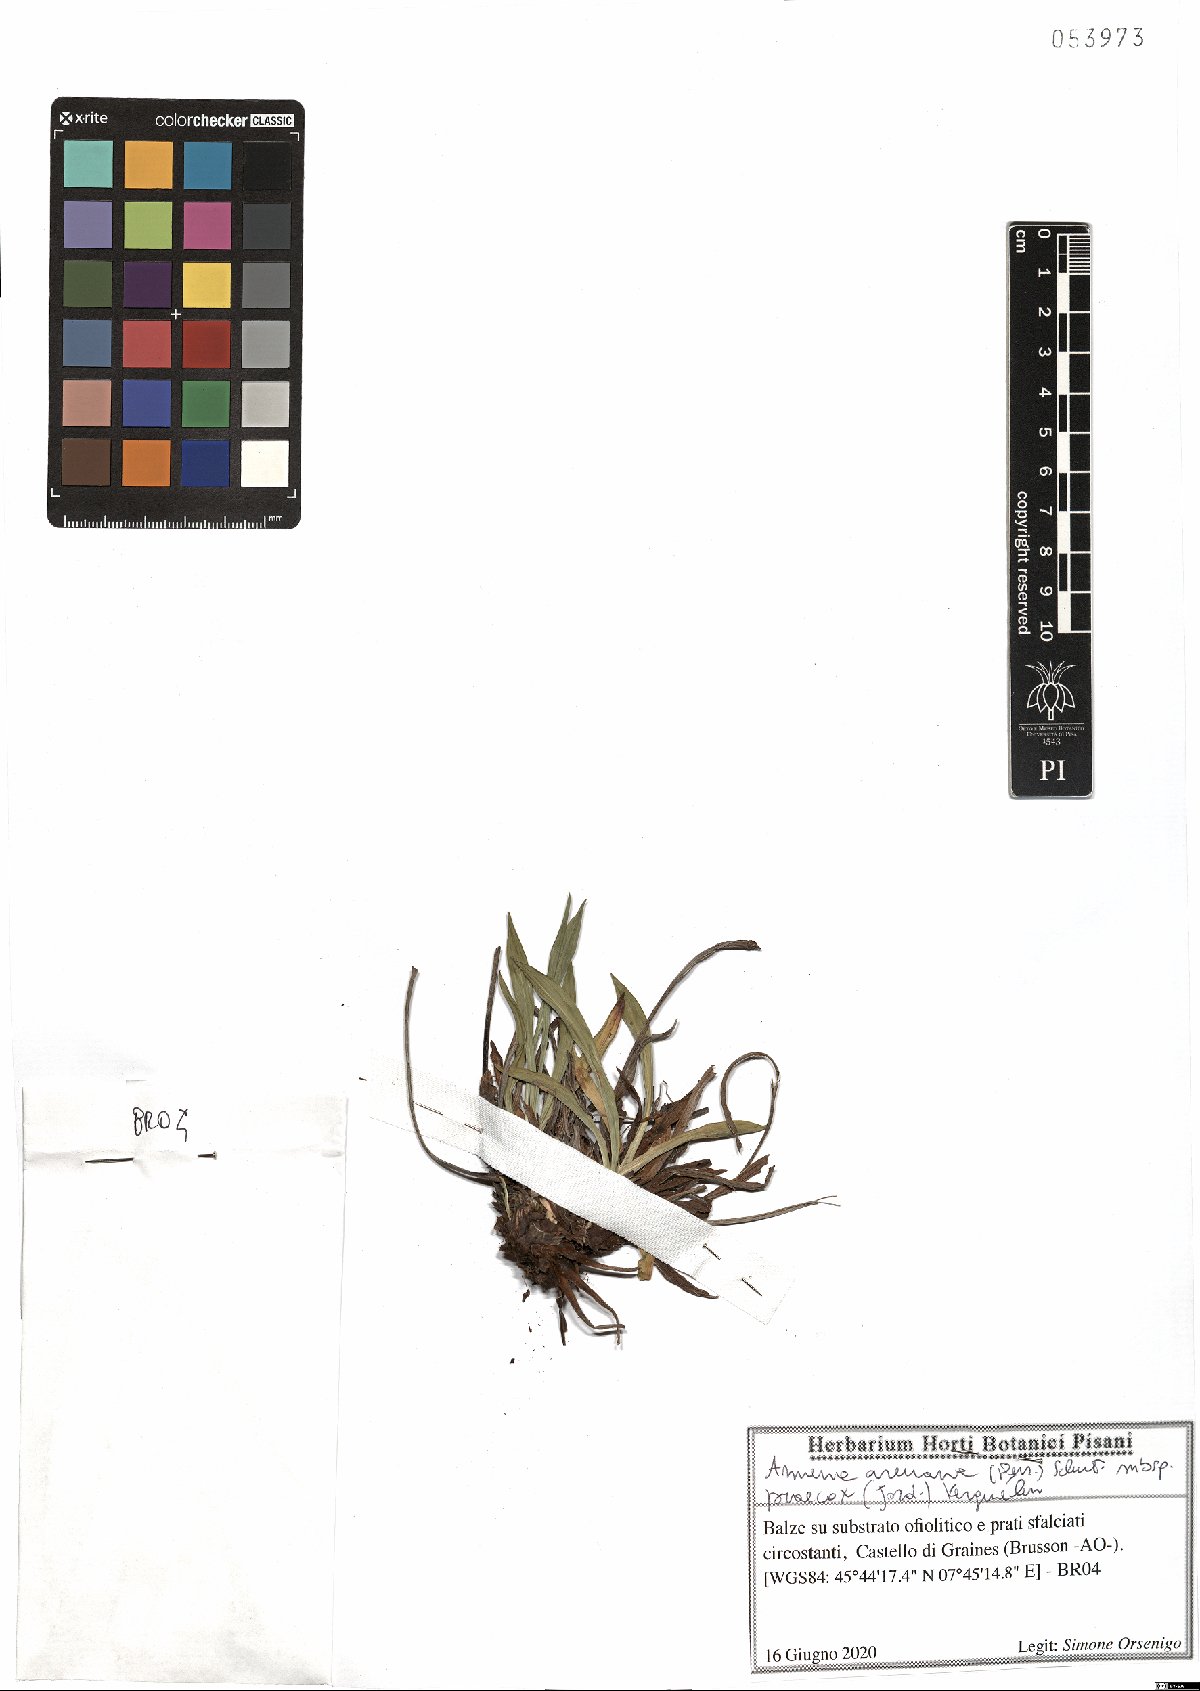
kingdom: Plantae
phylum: Tracheophyta
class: Magnoliopsida
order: Caryophyllales
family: Plumbaginaceae
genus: Armeria
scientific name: Armeria arenaria
